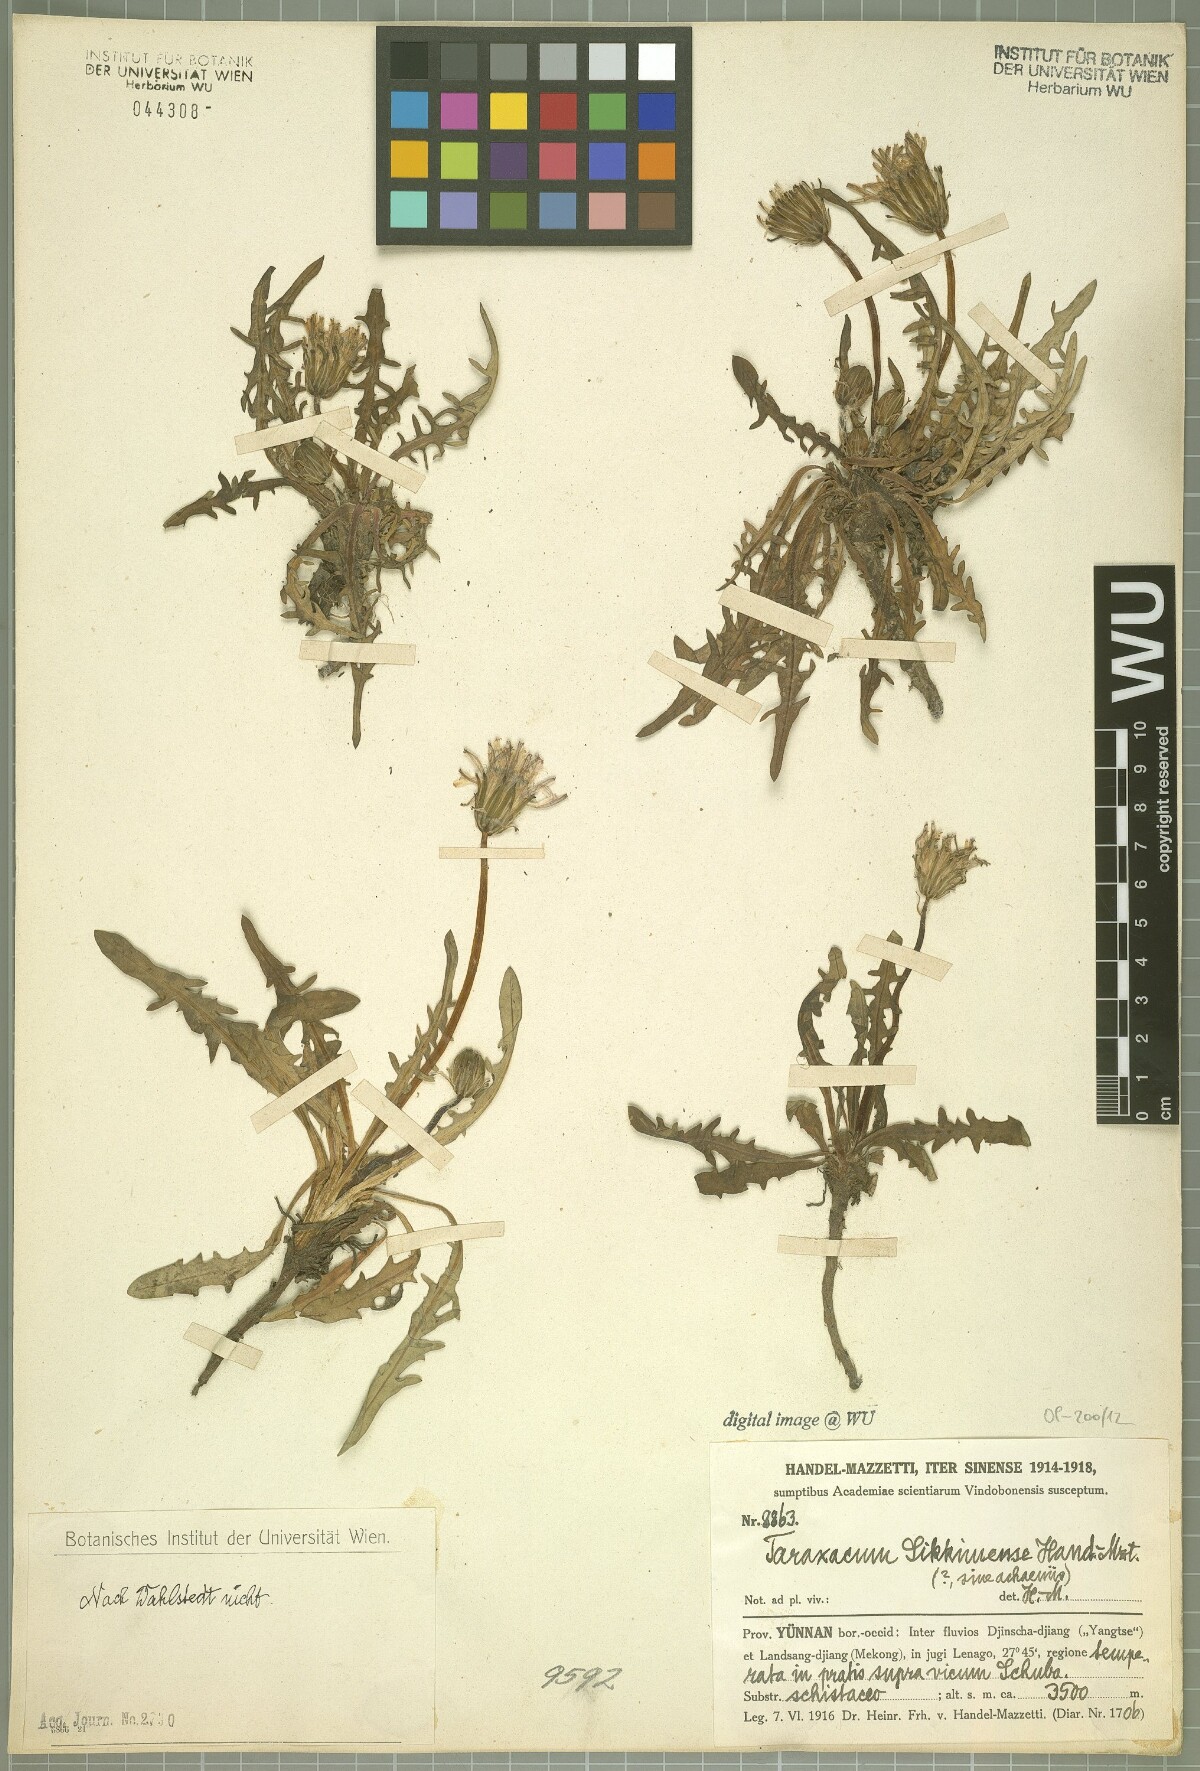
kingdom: Plantae
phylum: Tracheophyta
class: Magnoliopsida
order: Asterales
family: Asteraceae
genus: Taraxacum
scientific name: Taraxacum mongolicum
